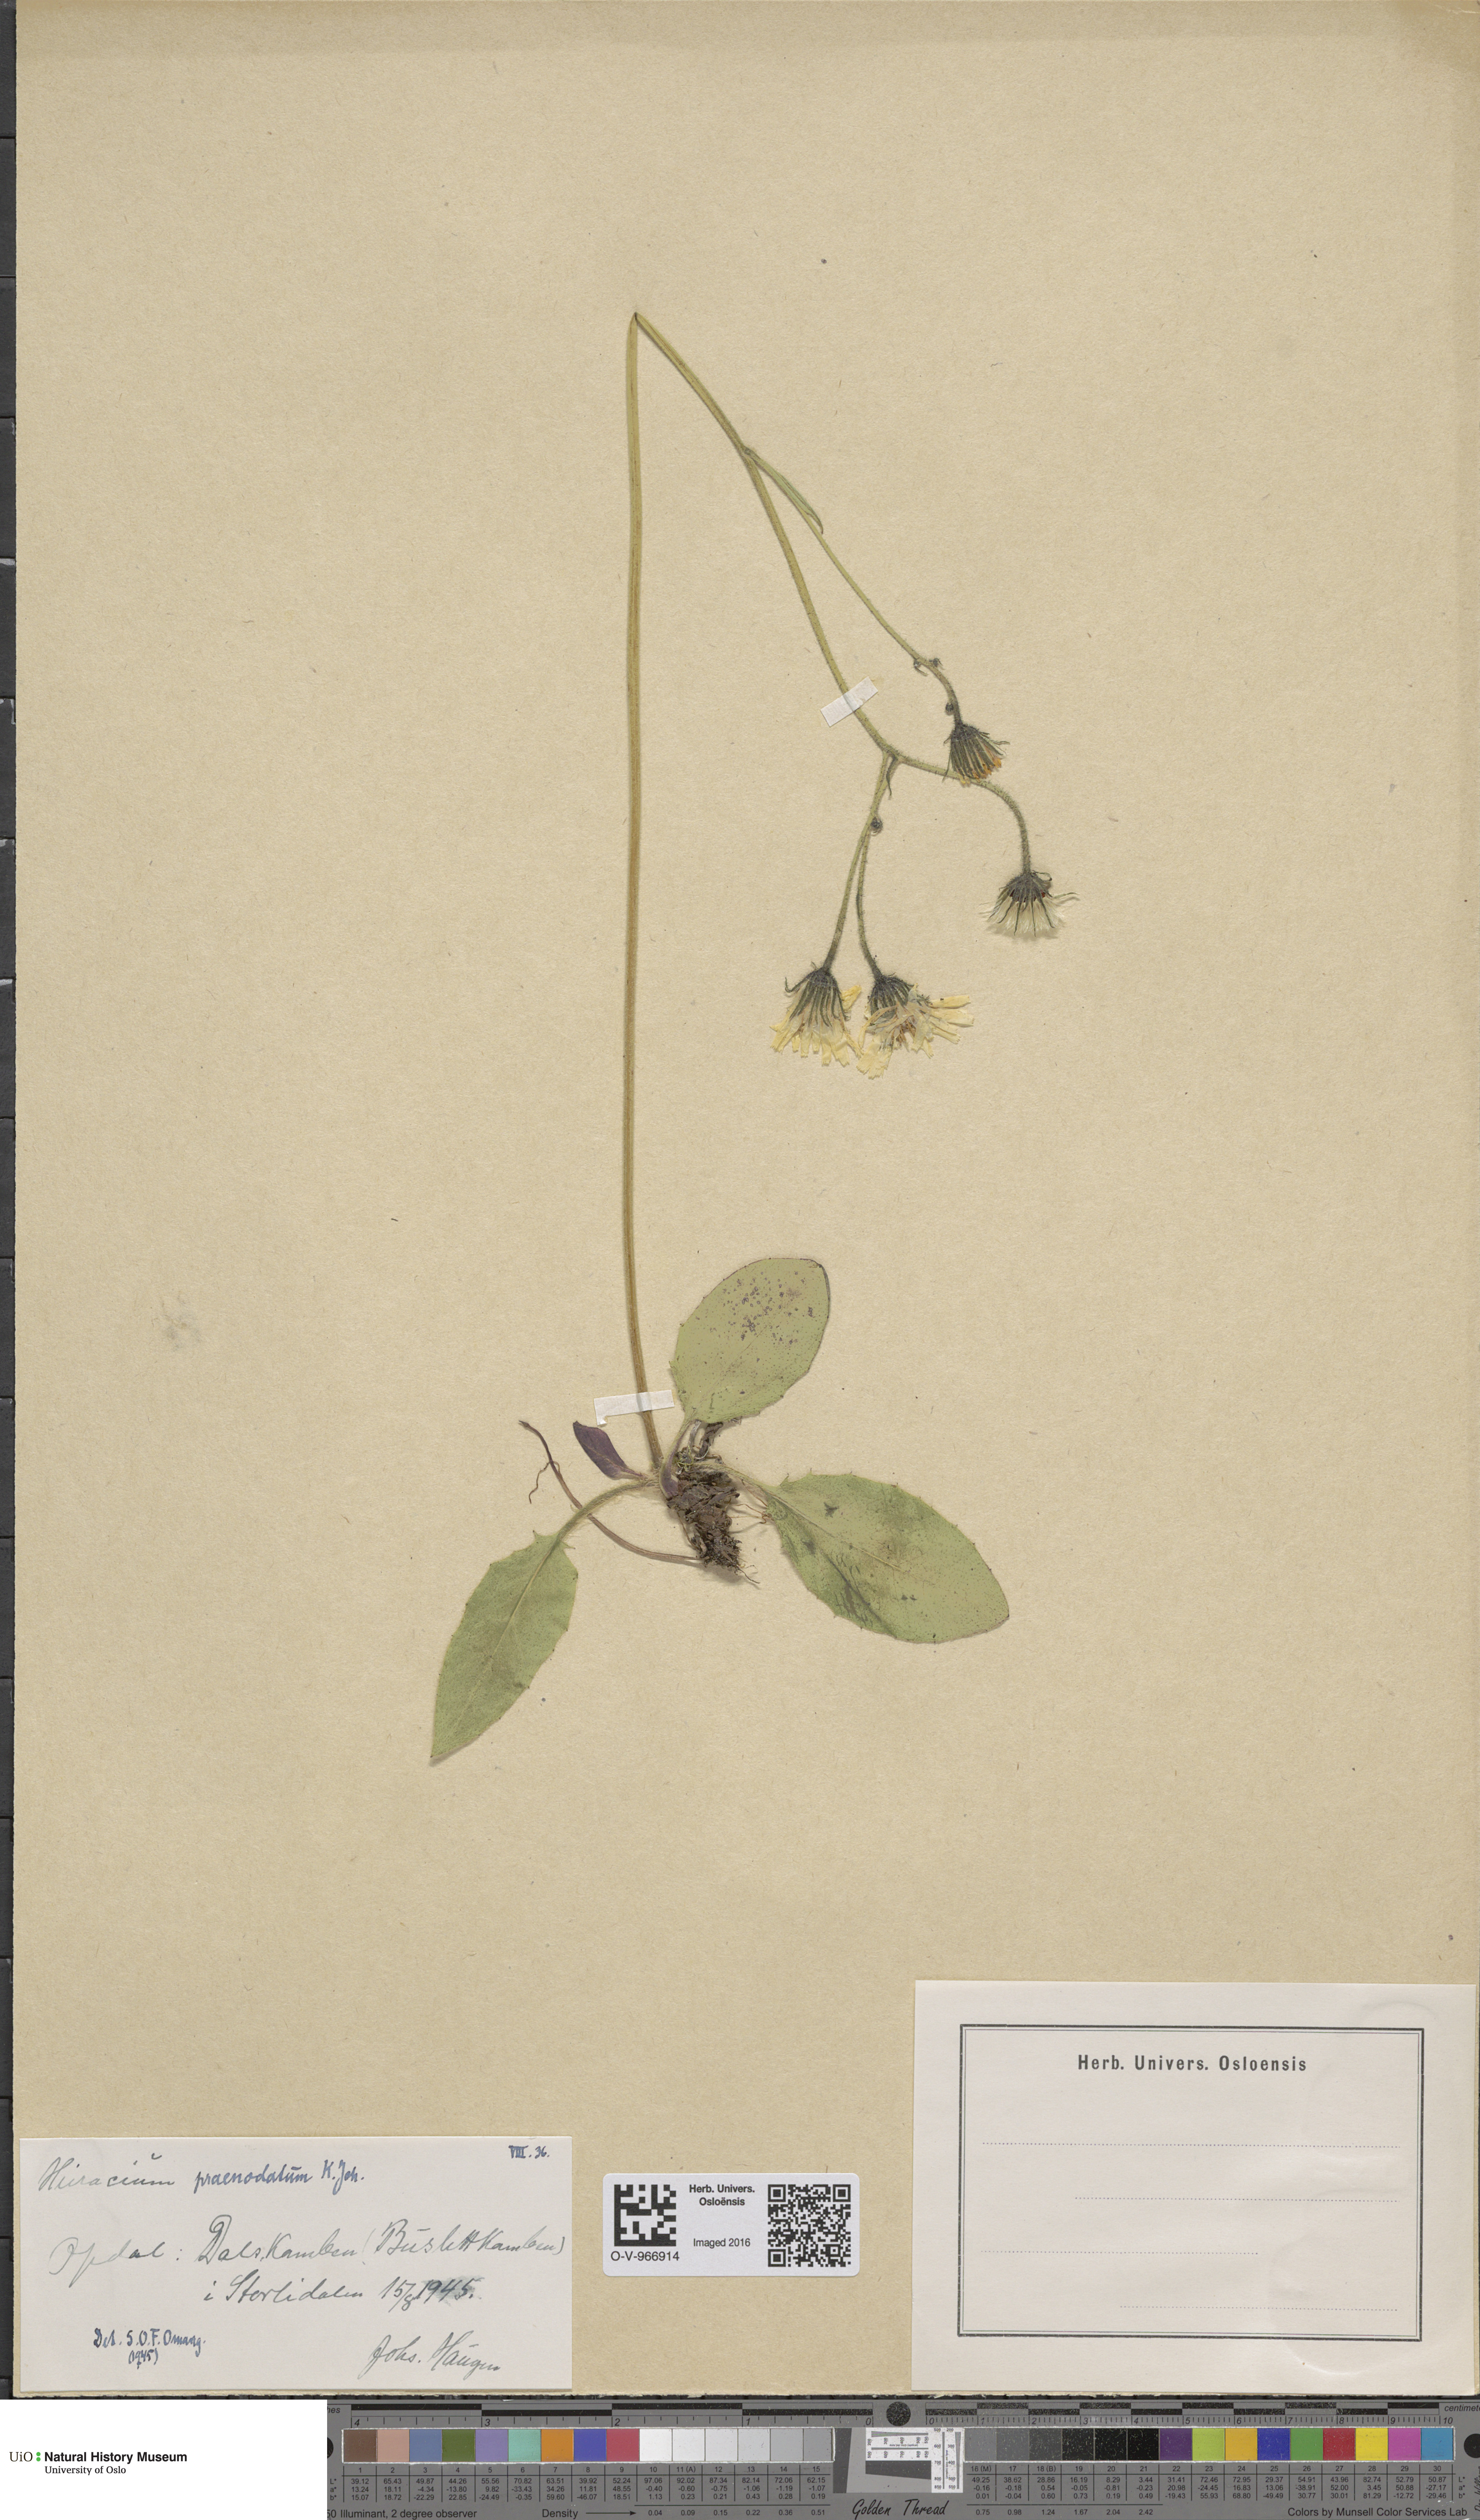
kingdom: Plantae
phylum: Tracheophyta
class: Magnoliopsida
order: Asterales
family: Asteraceae
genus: Hieracium
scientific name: Hieracium praenodatum
